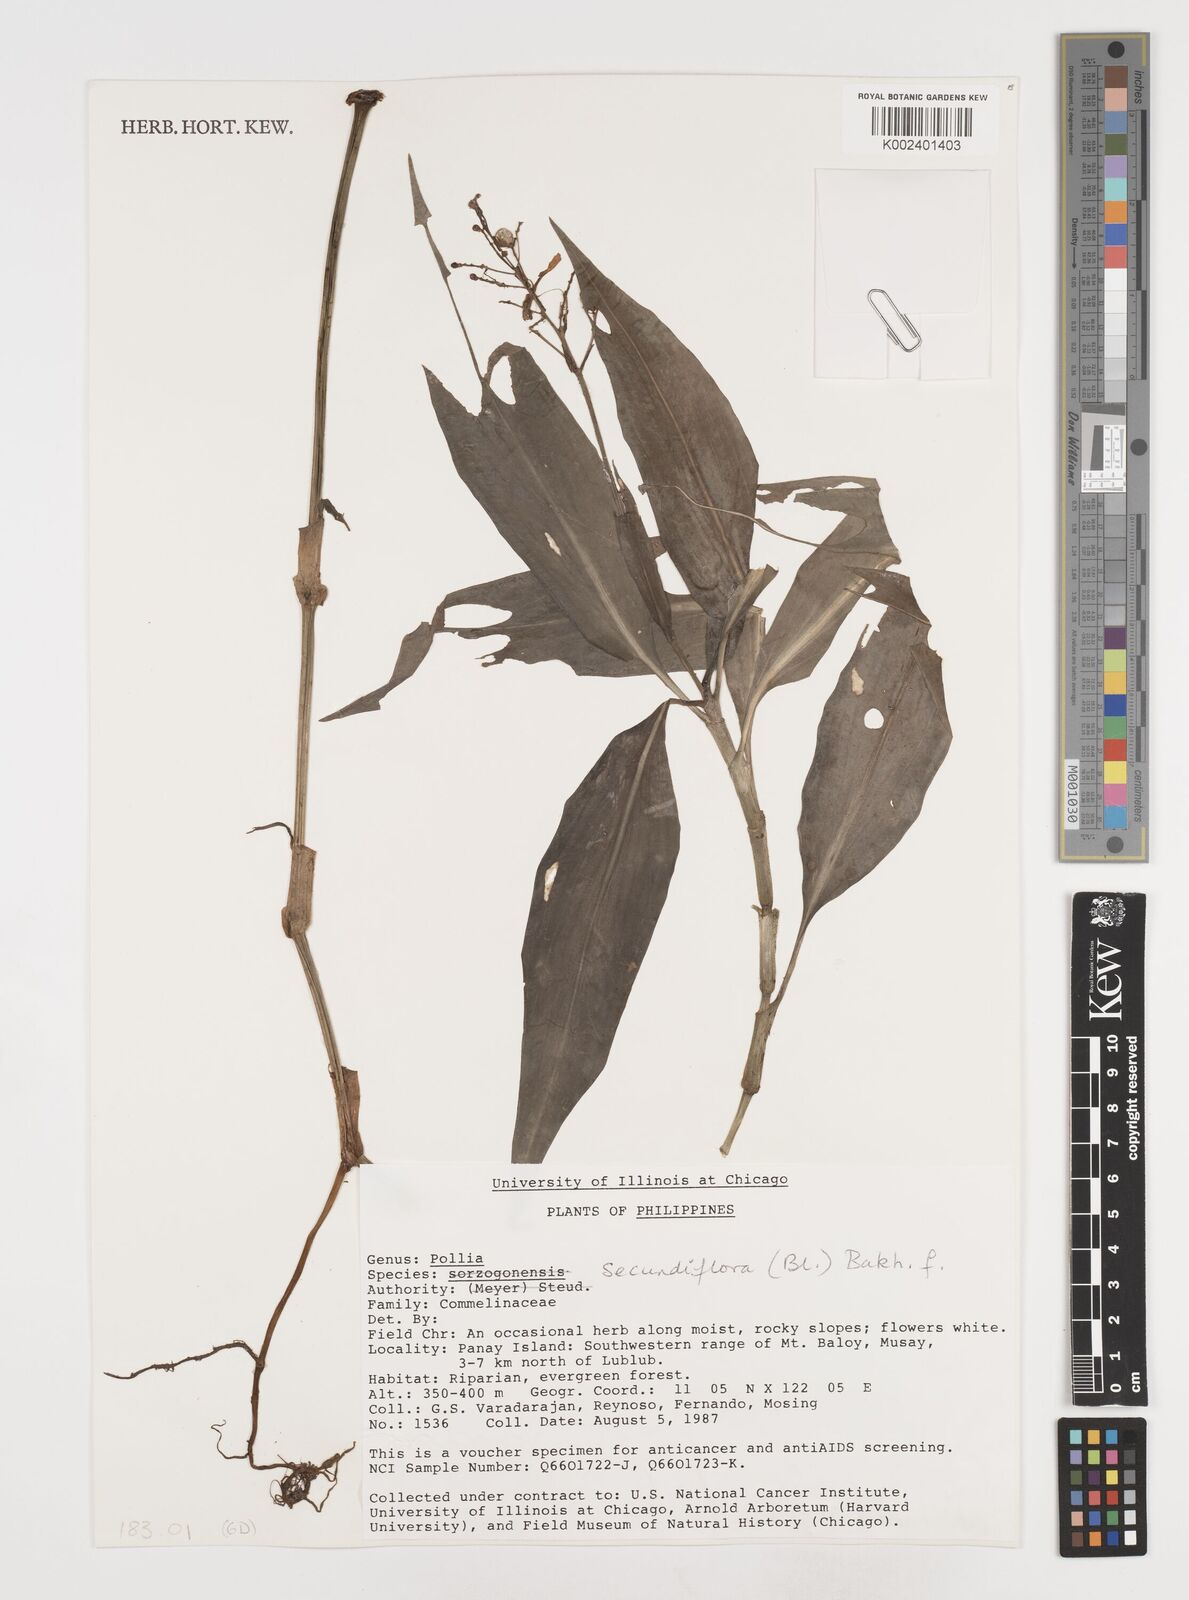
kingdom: Plantae
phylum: Tracheophyta
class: Liliopsida
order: Commelinales
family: Commelinaceae
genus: Pollia
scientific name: Pollia secundiflora
